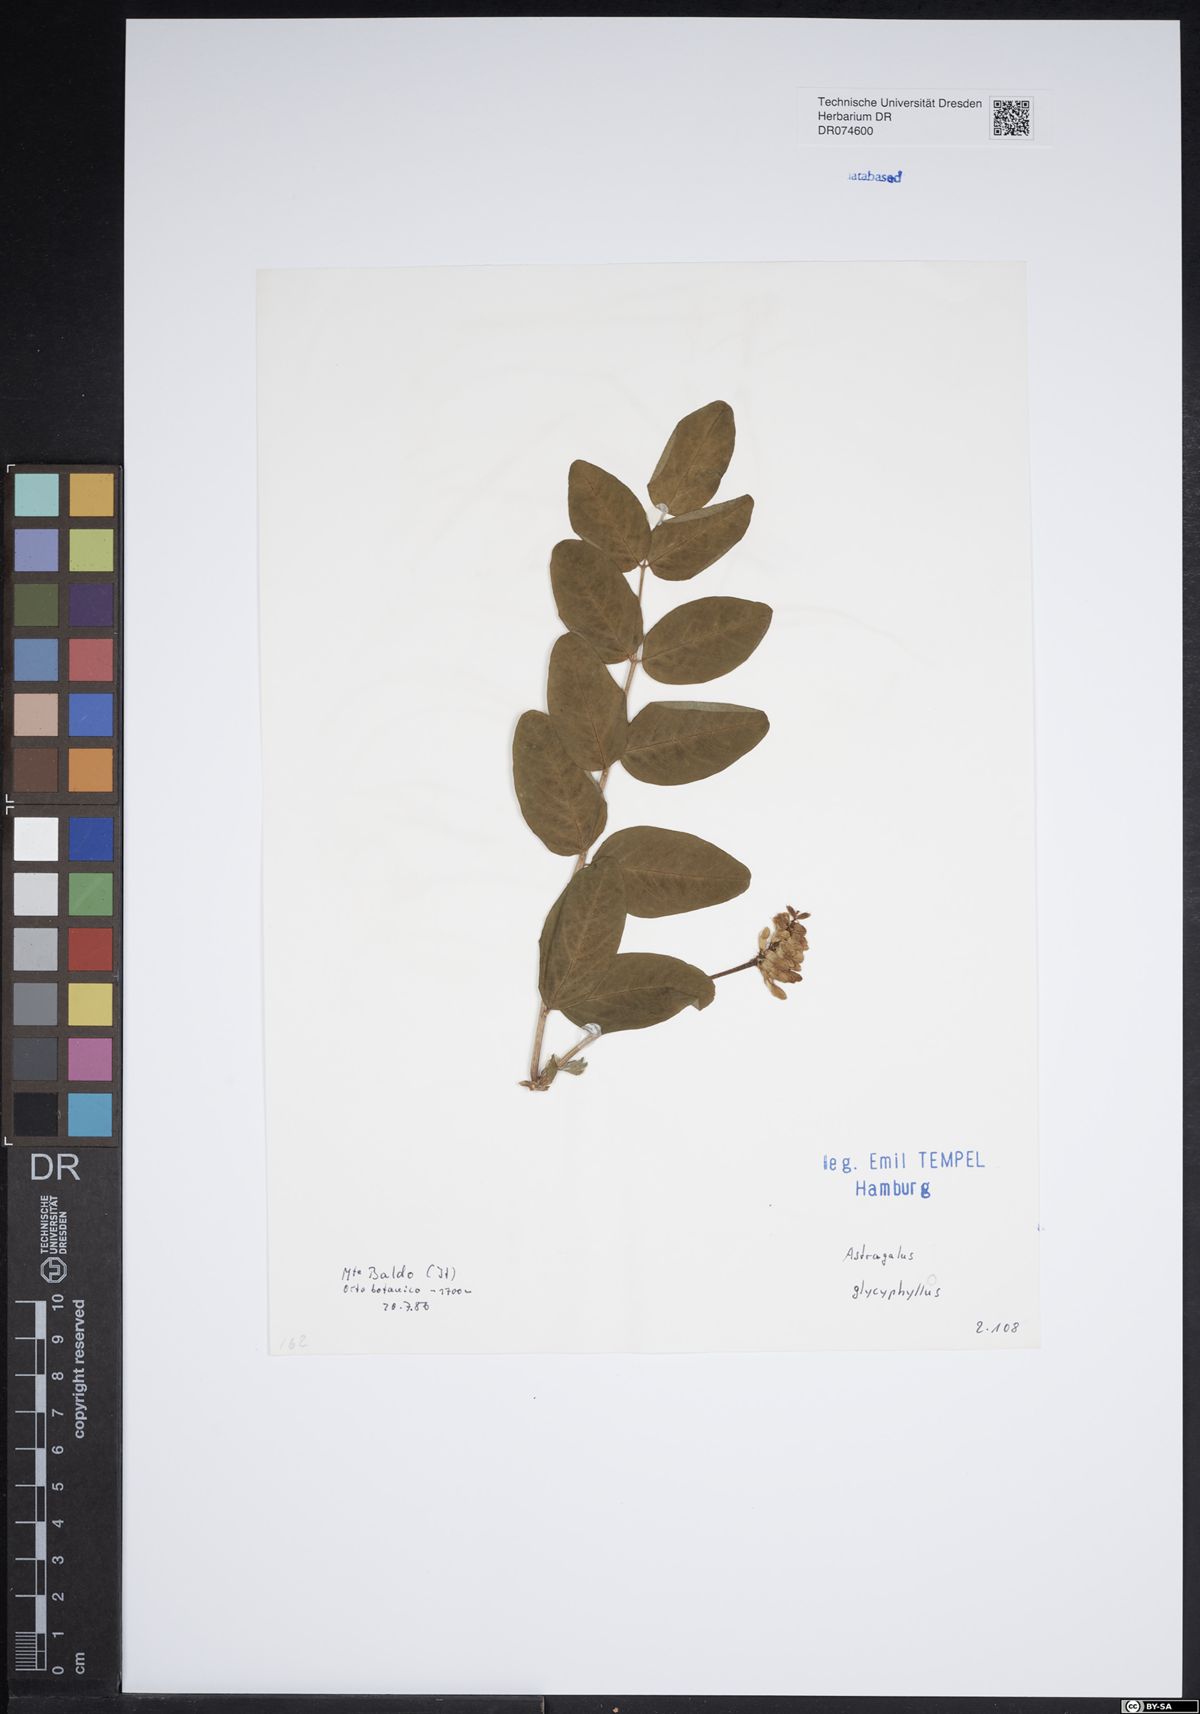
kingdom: Plantae
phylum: Tracheophyta
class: Magnoliopsida
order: Fabales
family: Fabaceae
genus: Astragalus
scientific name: Astragalus glycyphyllos
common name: Wild liquorice
